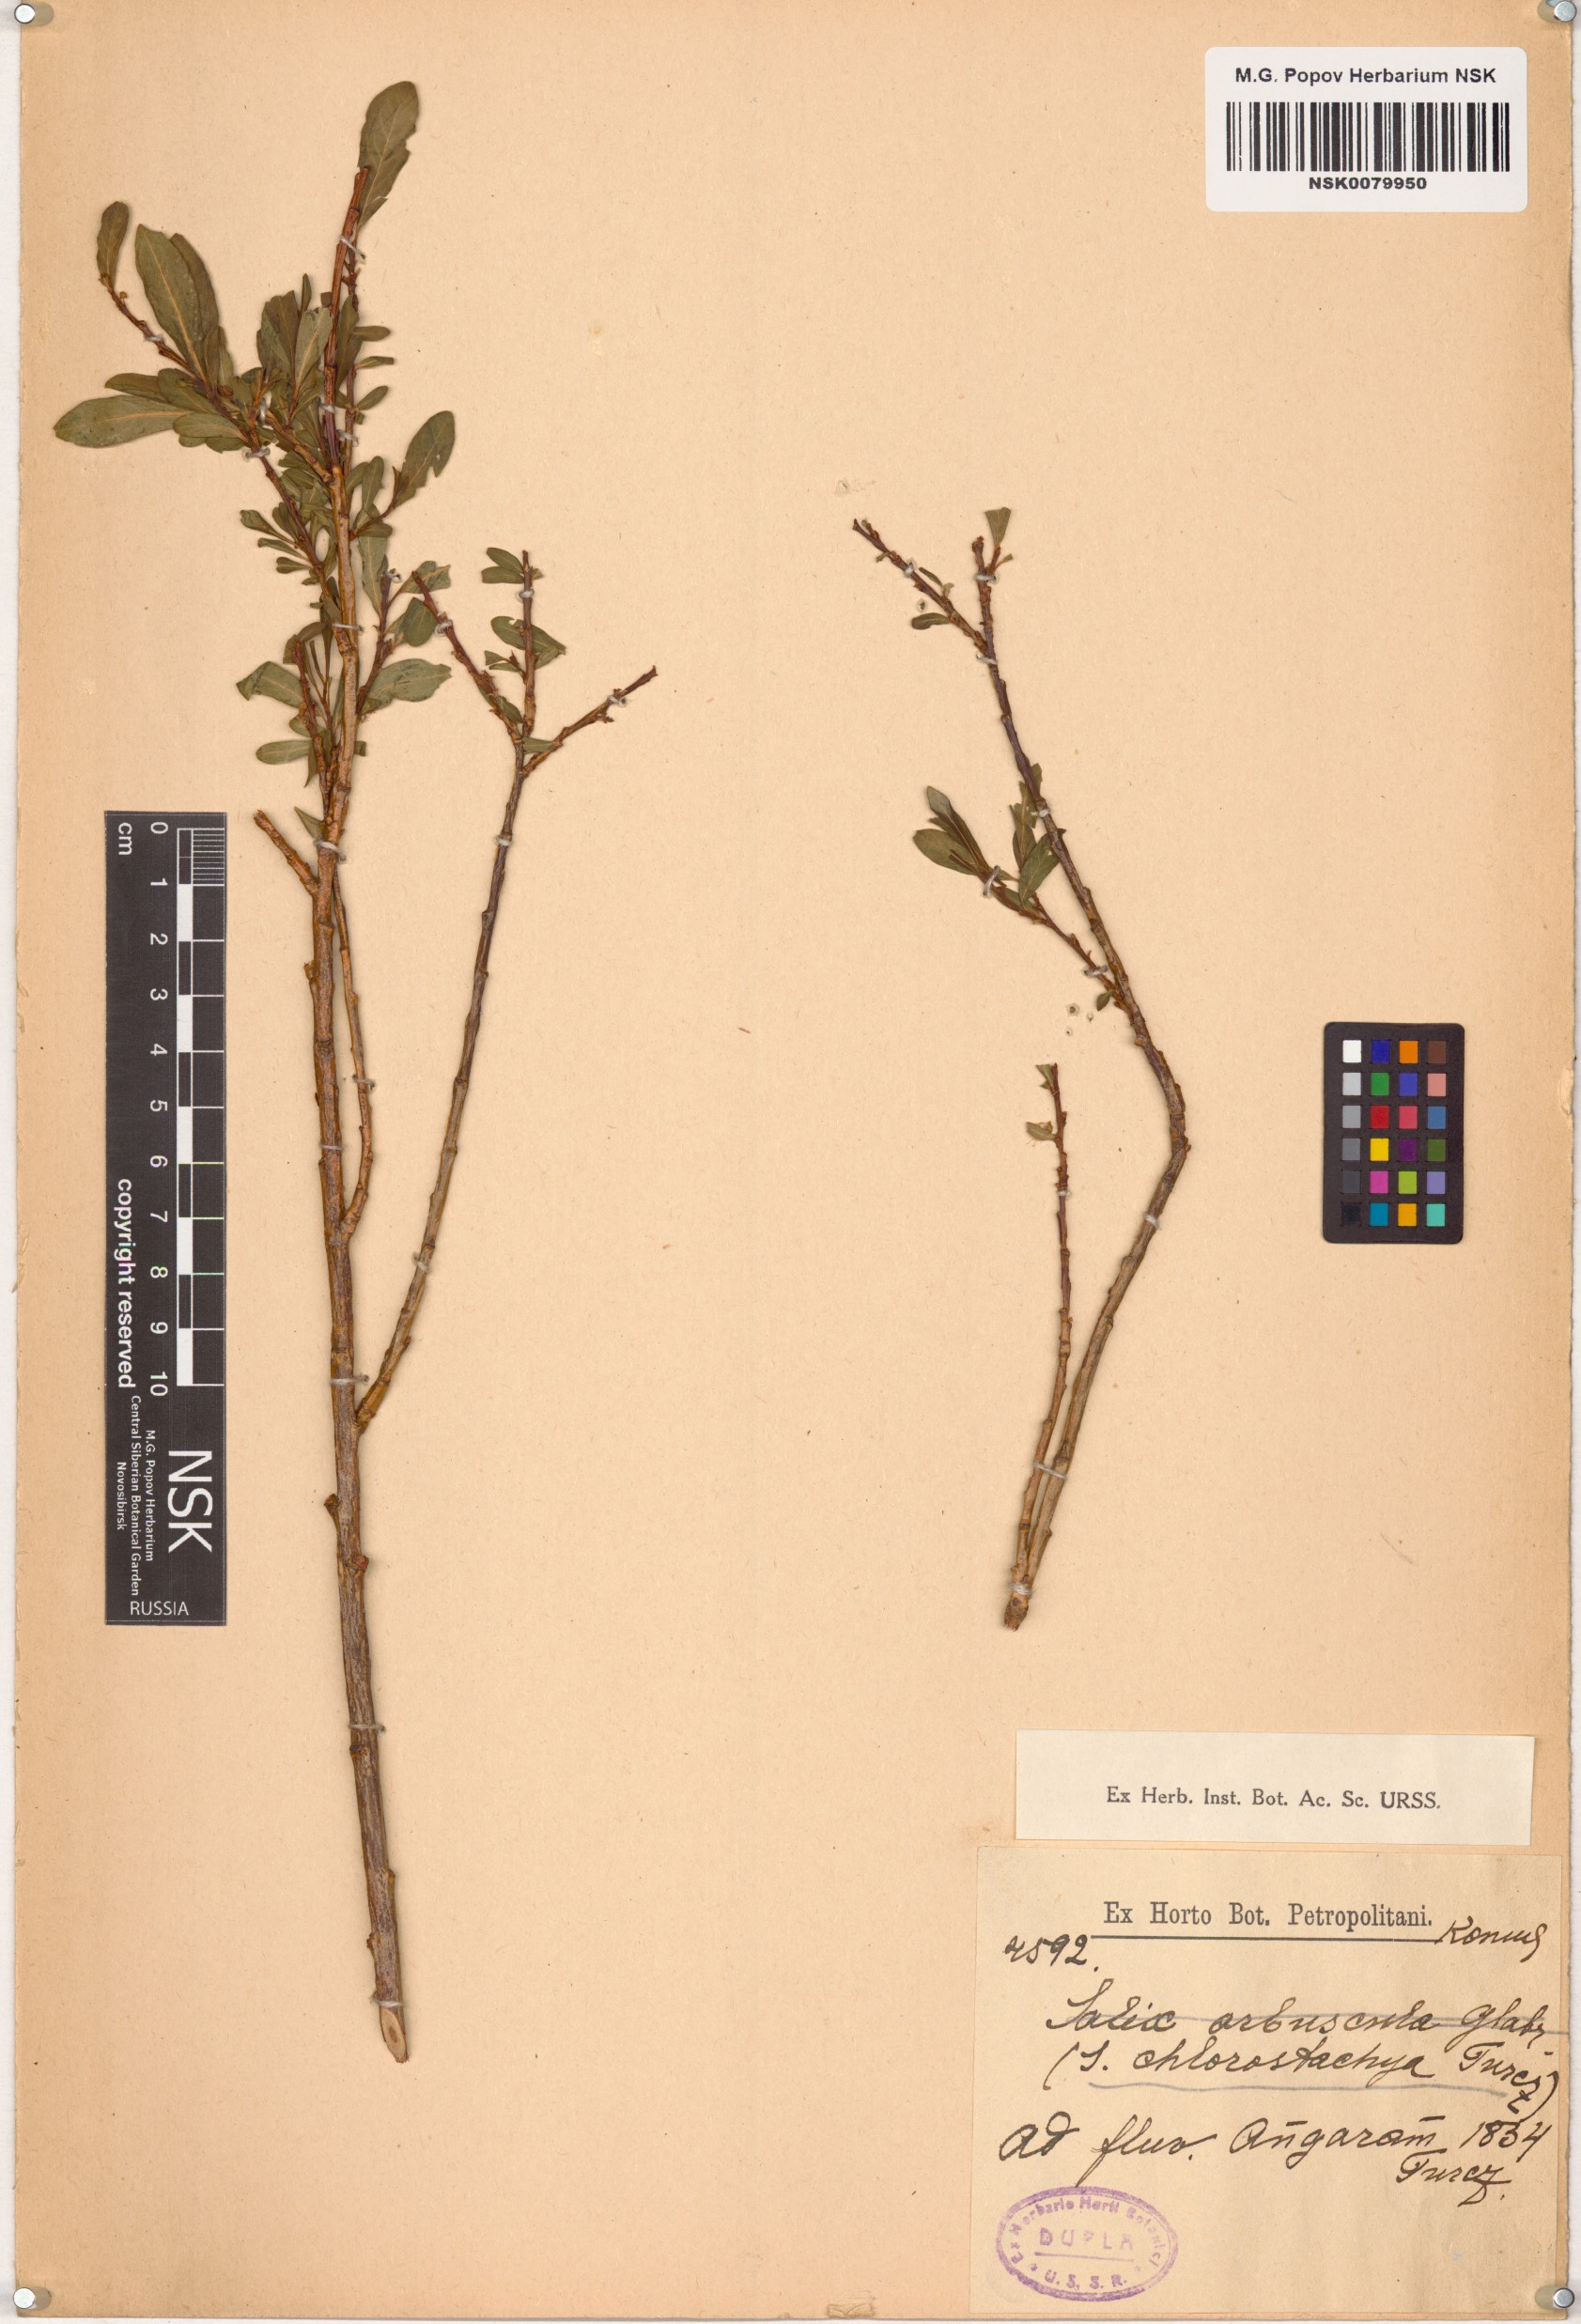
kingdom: Plantae
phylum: Tracheophyta
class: Magnoliopsida
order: Malpighiales
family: Salicaceae
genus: Salix
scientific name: Salix rhamnifolia
